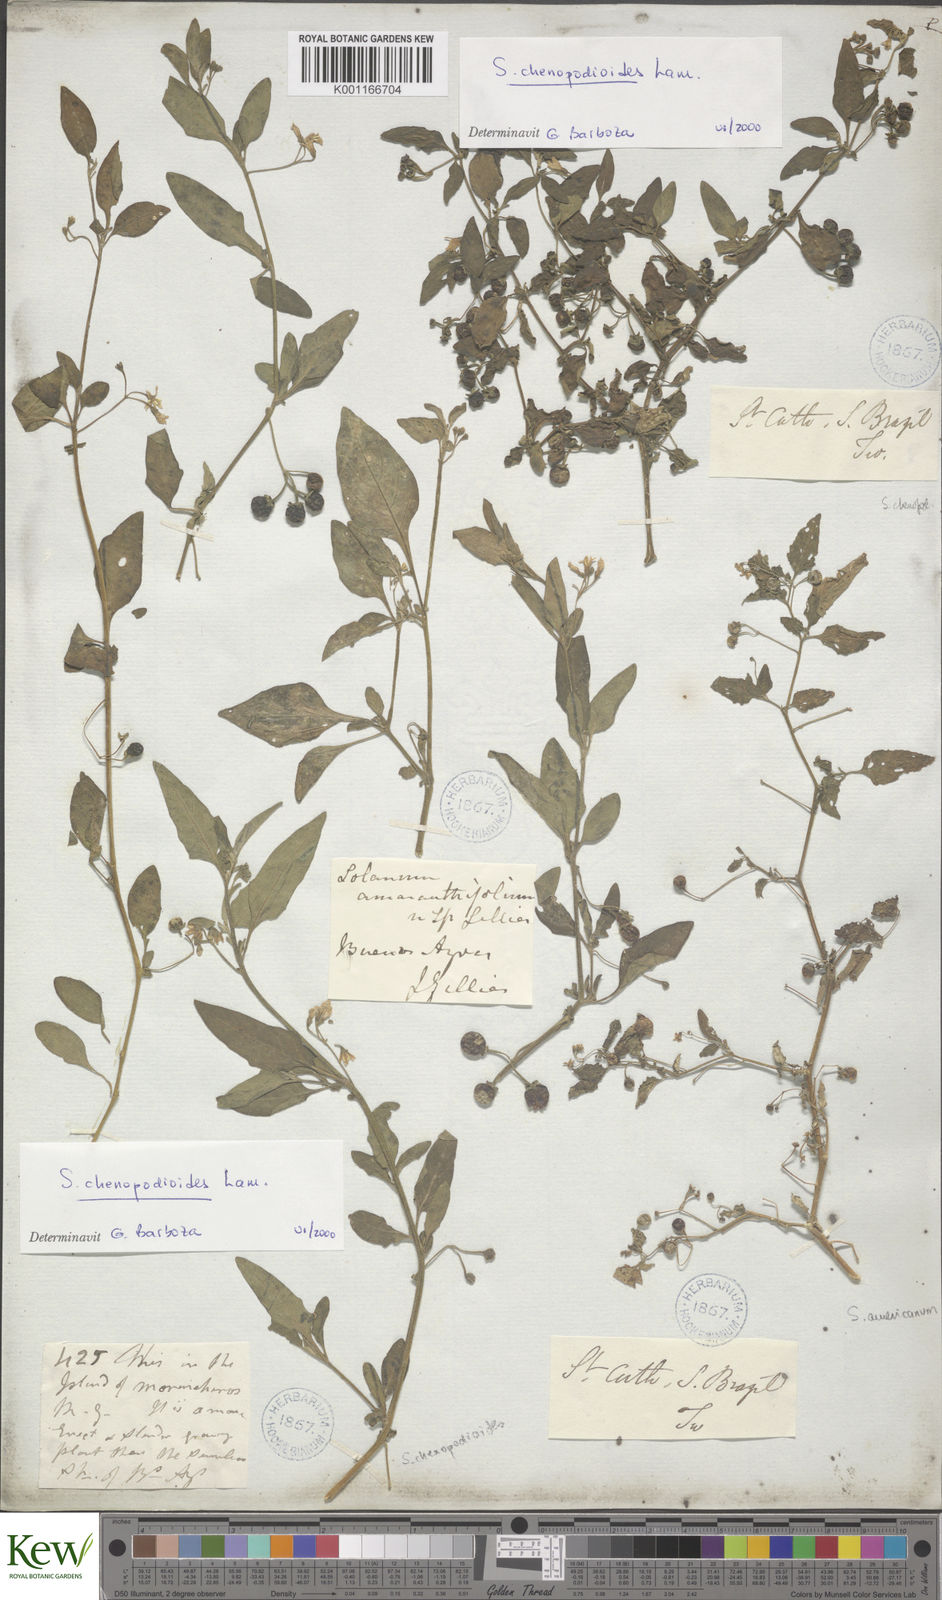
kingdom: Plantae
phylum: Tracheophyta
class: Magnoliopsida
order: Solanales
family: Solanaceae
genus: Solanum
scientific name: Solanum chenopodioides
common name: Tall nightshade
